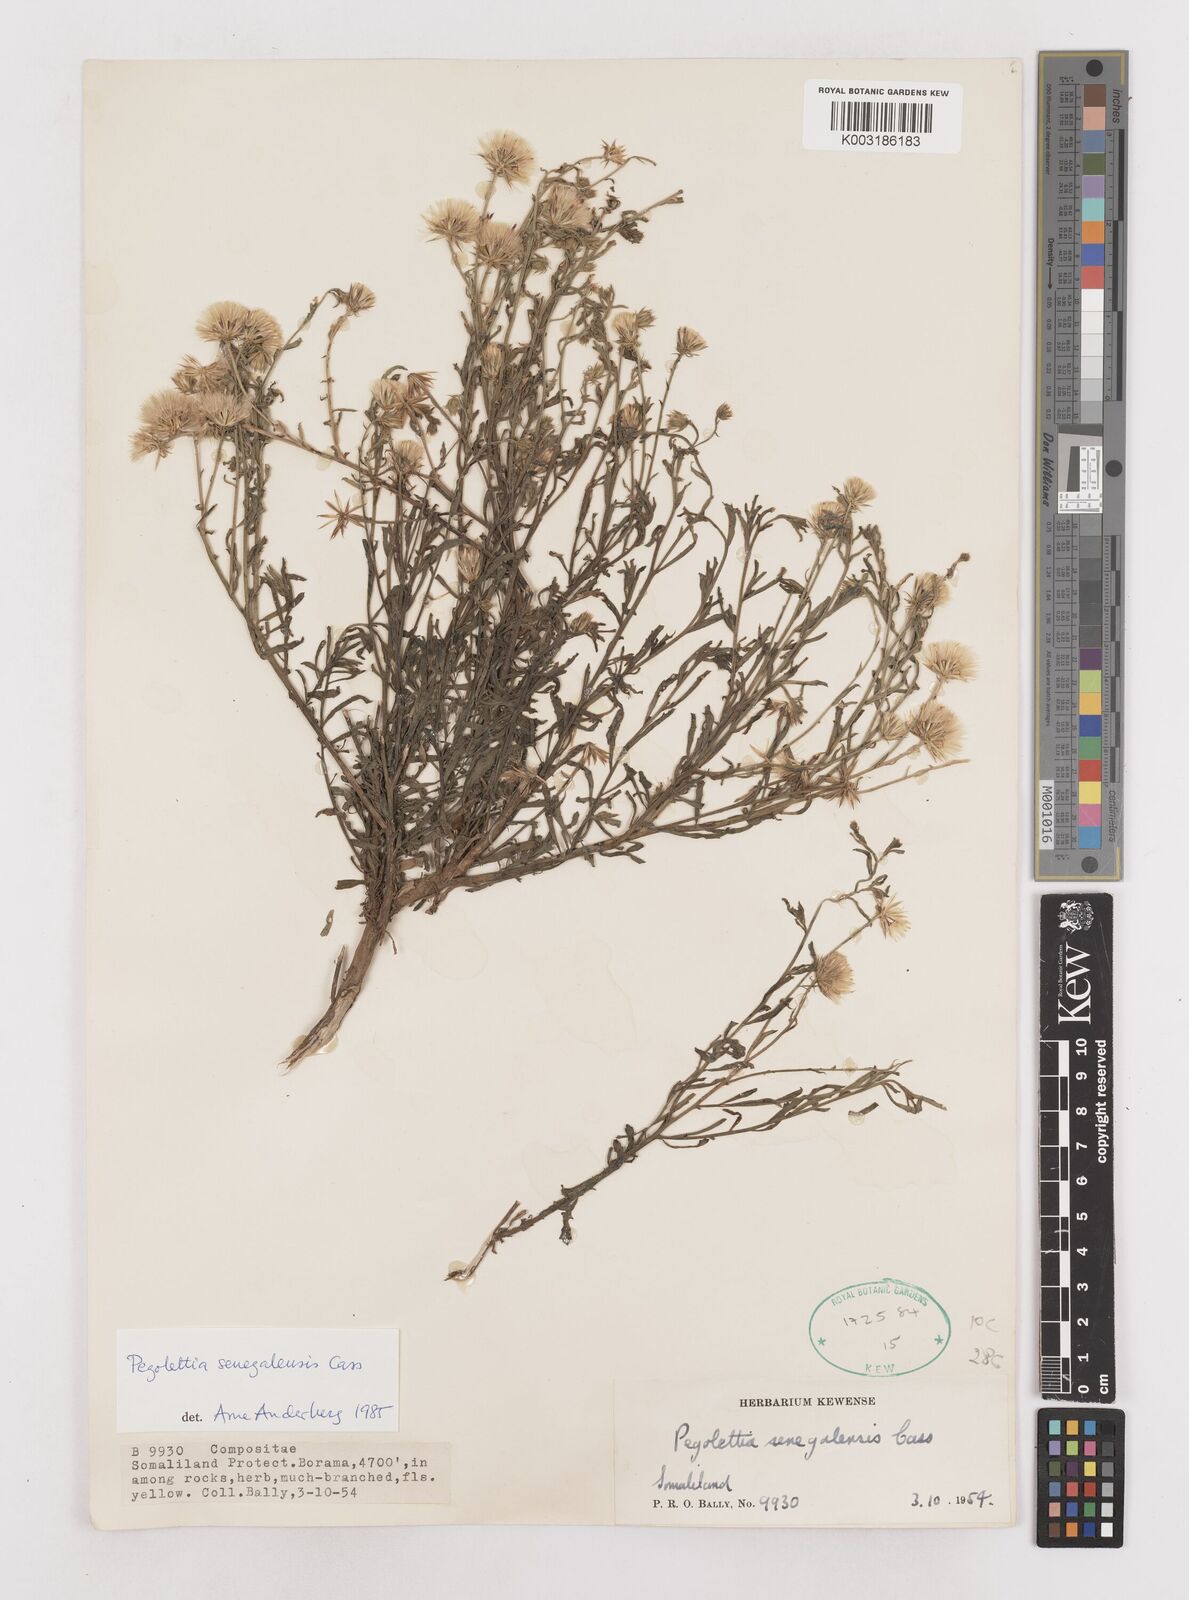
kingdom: Plantae
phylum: Tracheophyta
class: Magnoliopsida
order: Asterales
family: Asteraceae
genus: Pegolettia
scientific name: Pegolettia senegalensis
